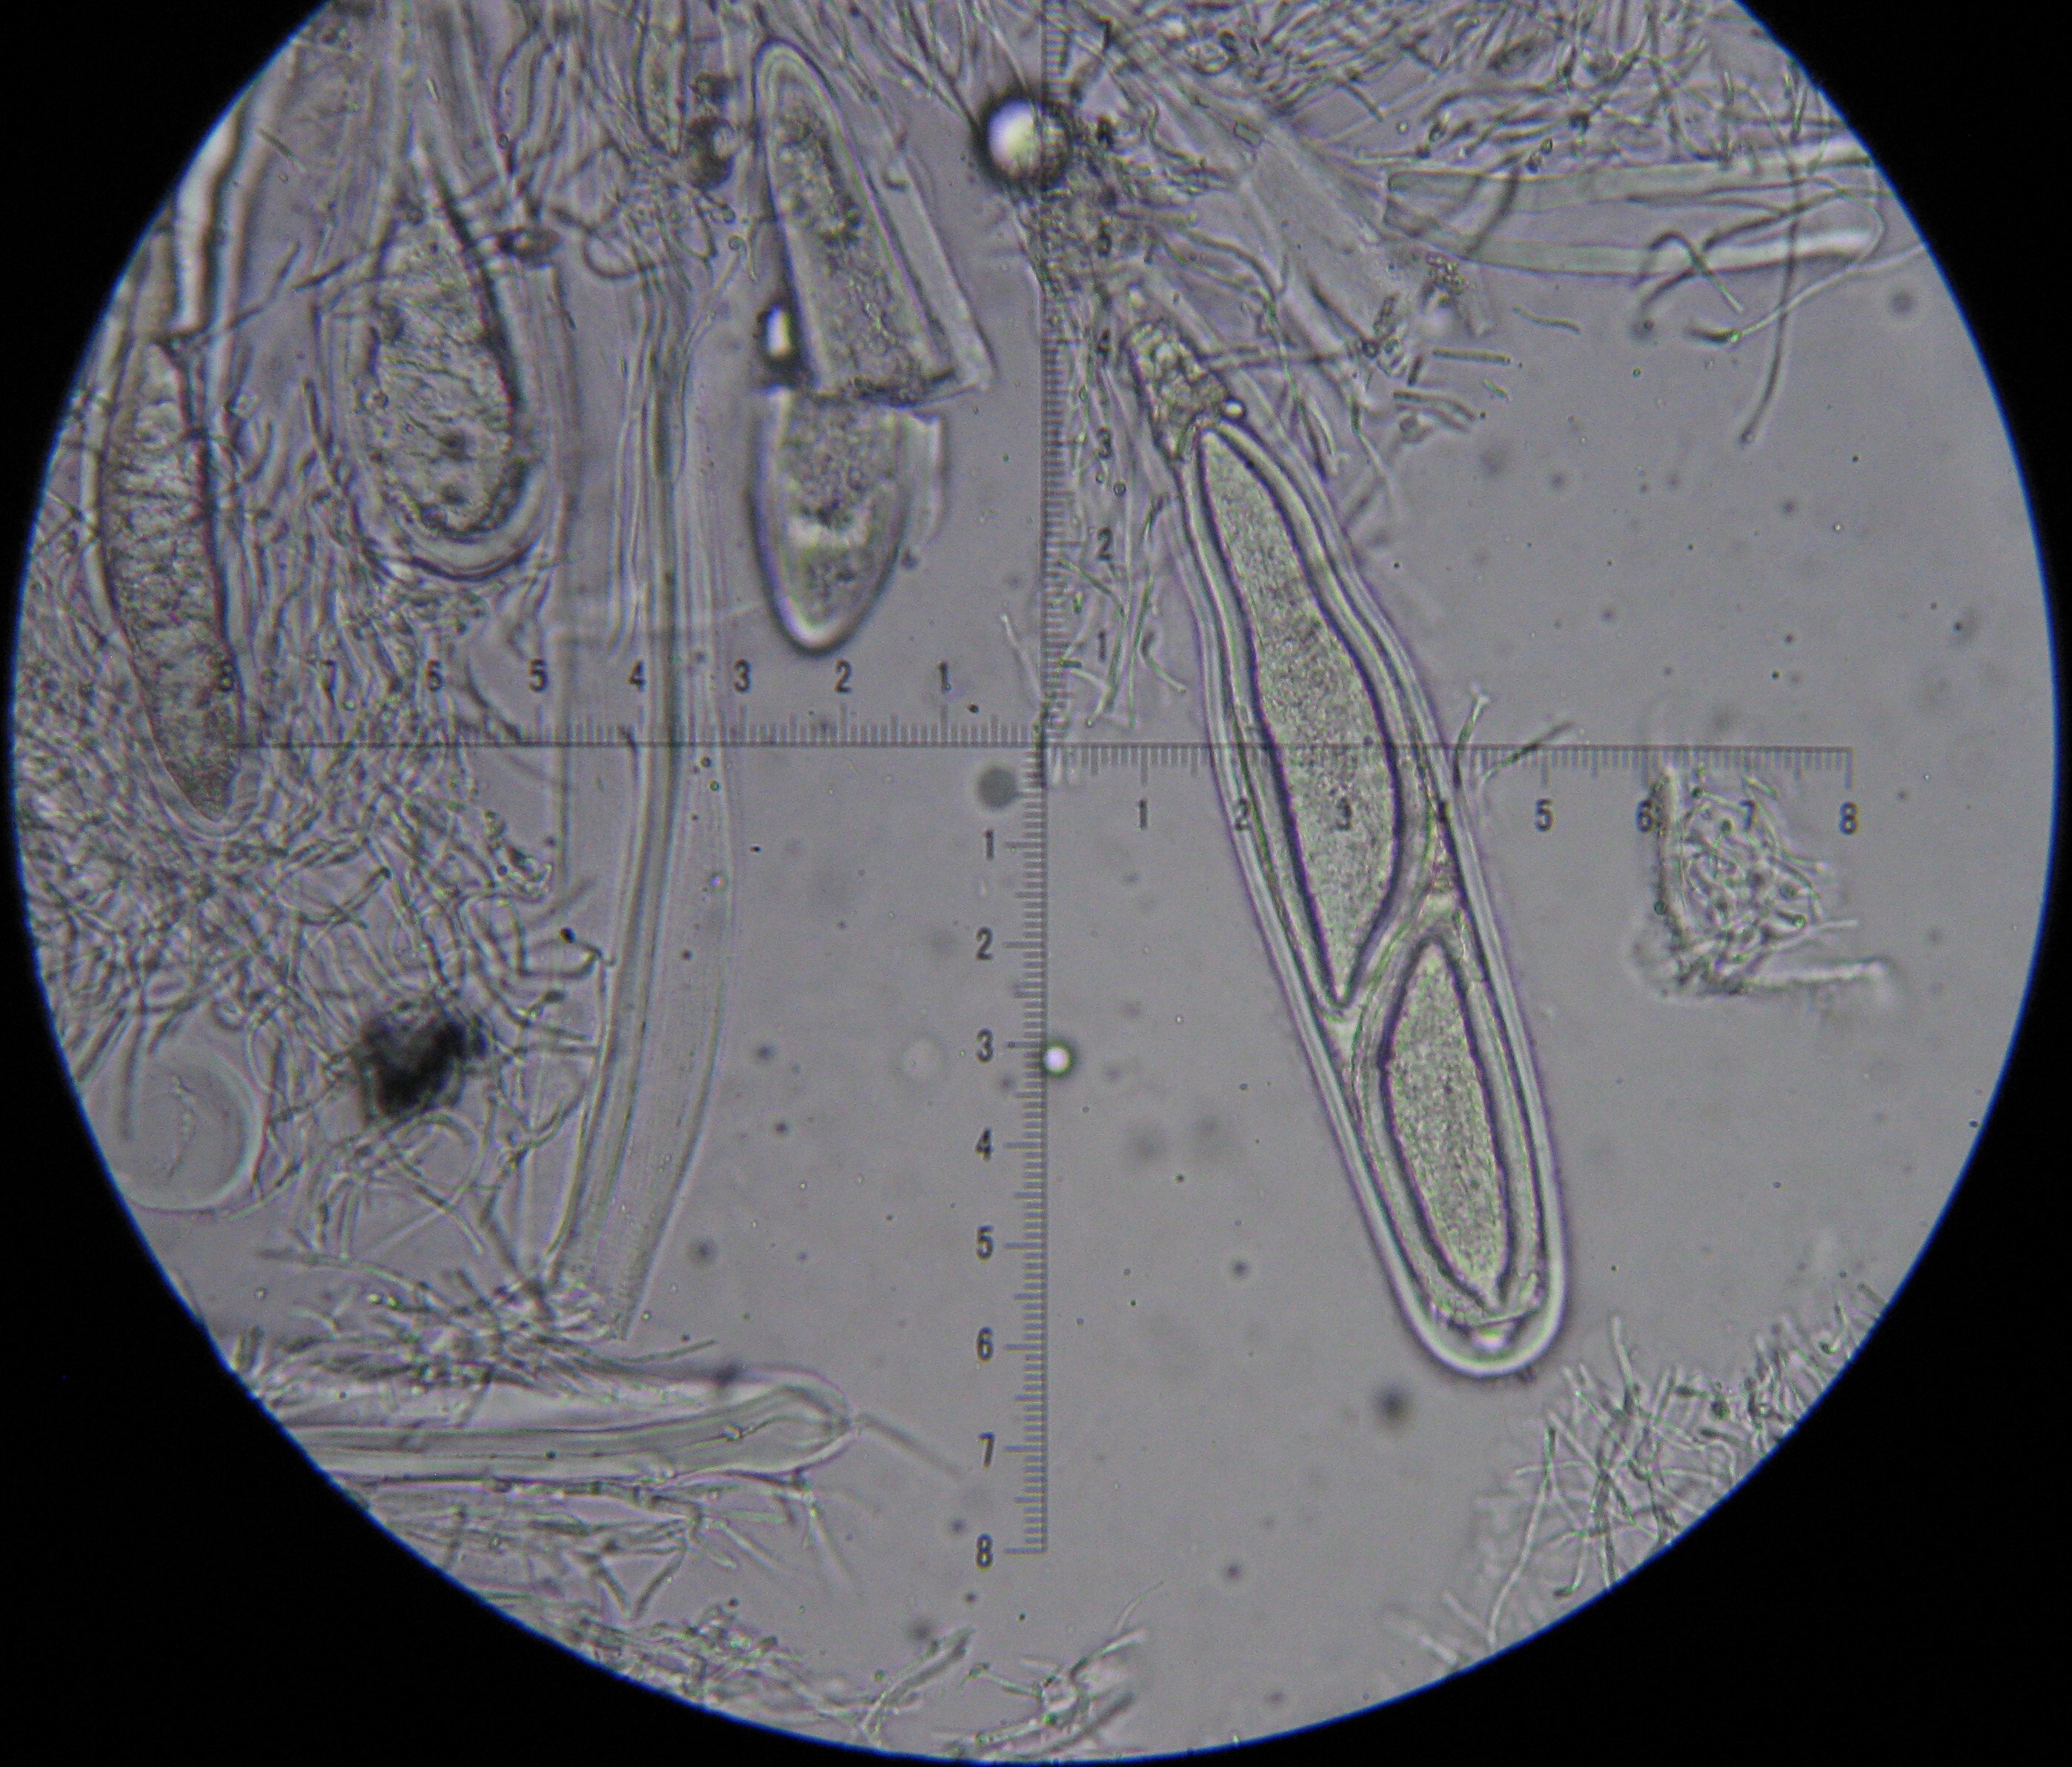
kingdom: Fungi
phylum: Ascomycota
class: Lecanoromycetes
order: Pertusariales
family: Pertusariaceae
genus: Pertusaria
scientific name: Pertusaria pertusa
